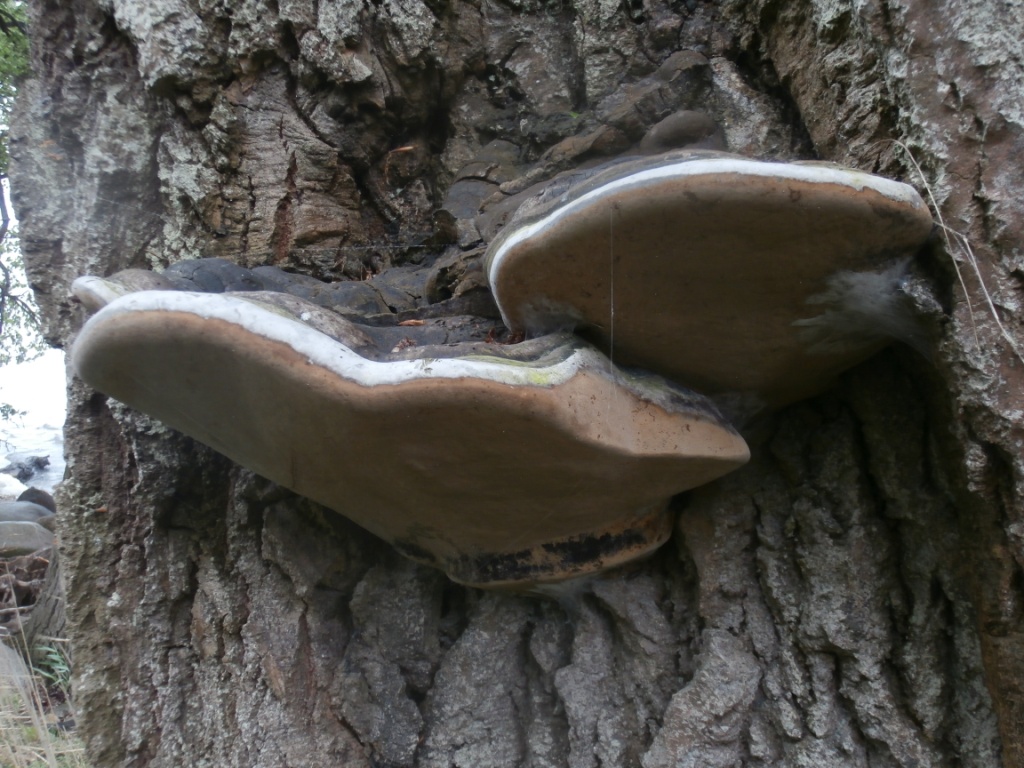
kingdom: Fungi
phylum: Basidiomycota
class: Agaricomycetes
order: Hymenochaetales
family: Hymenochaetaceae
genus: Phellinus
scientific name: Phellinus populicola
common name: poppel-ildporesvamp
